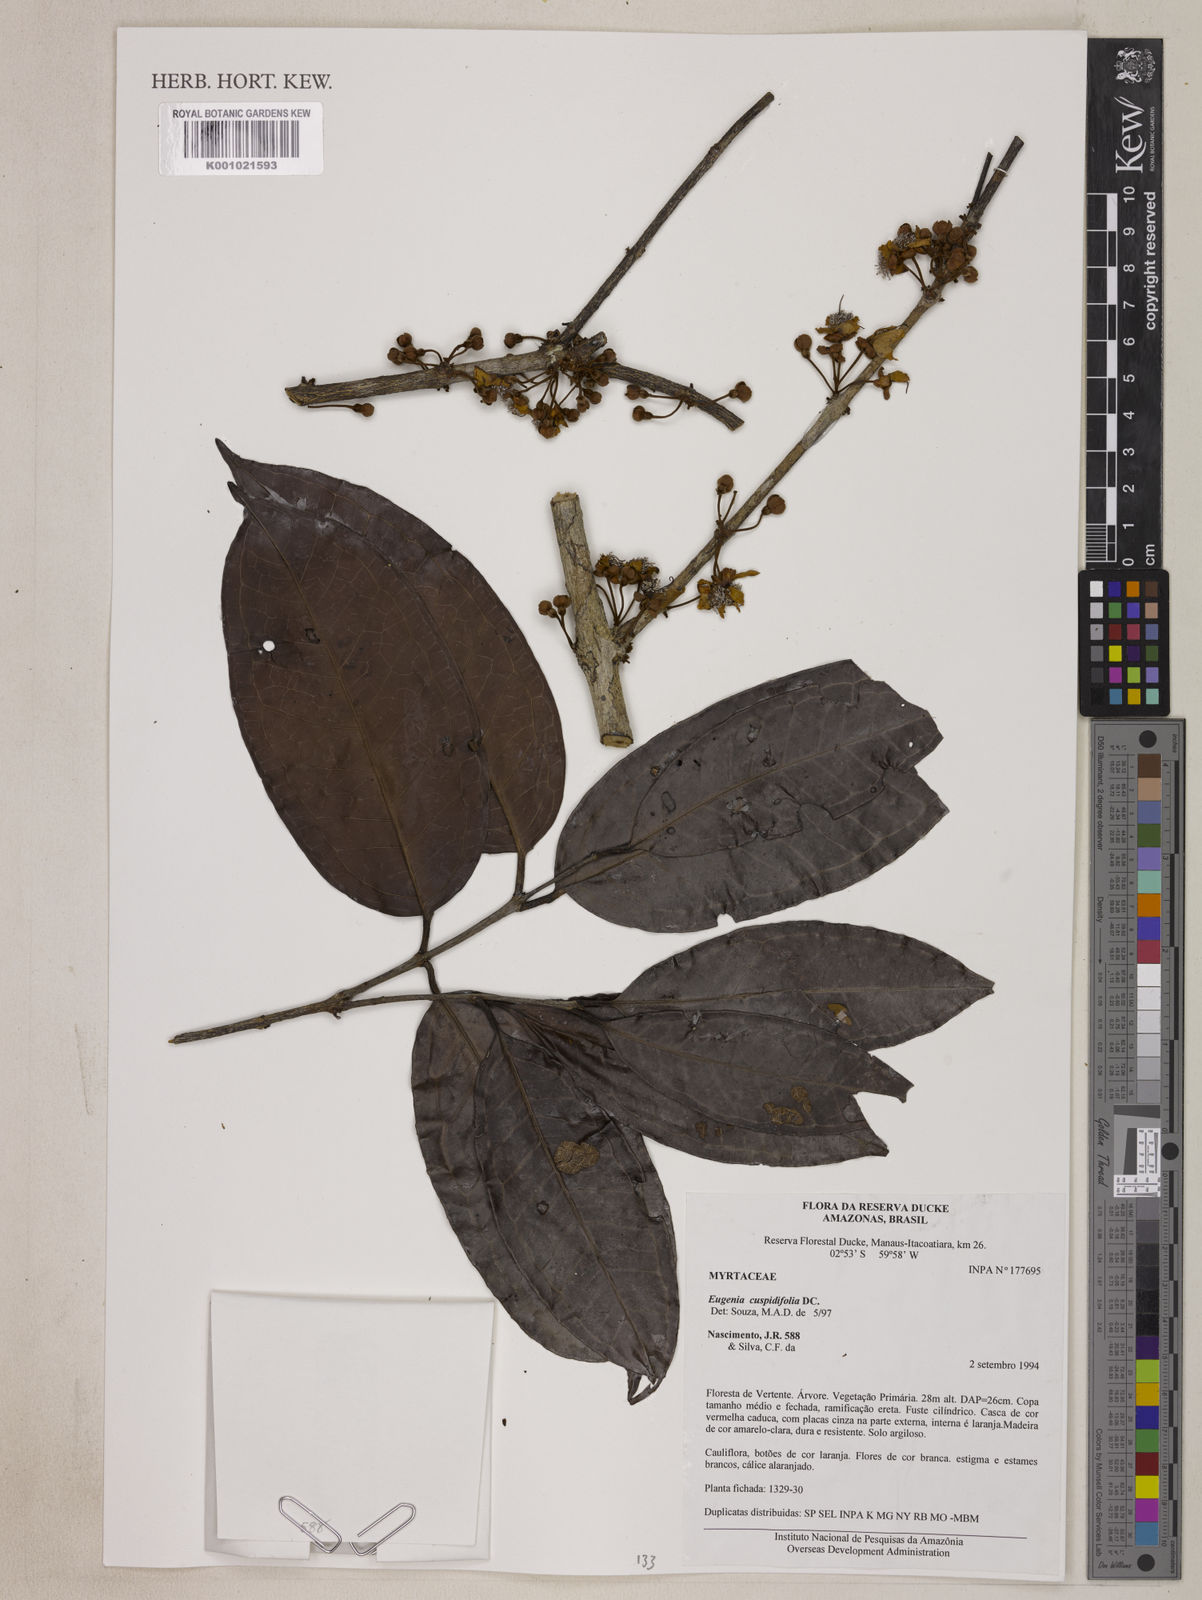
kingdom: Plantae
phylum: Tracheophyta
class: Magnoliopsida
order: Myrtales
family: Myrtaceae
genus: Eugenia
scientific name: Eugenia solimoensis
